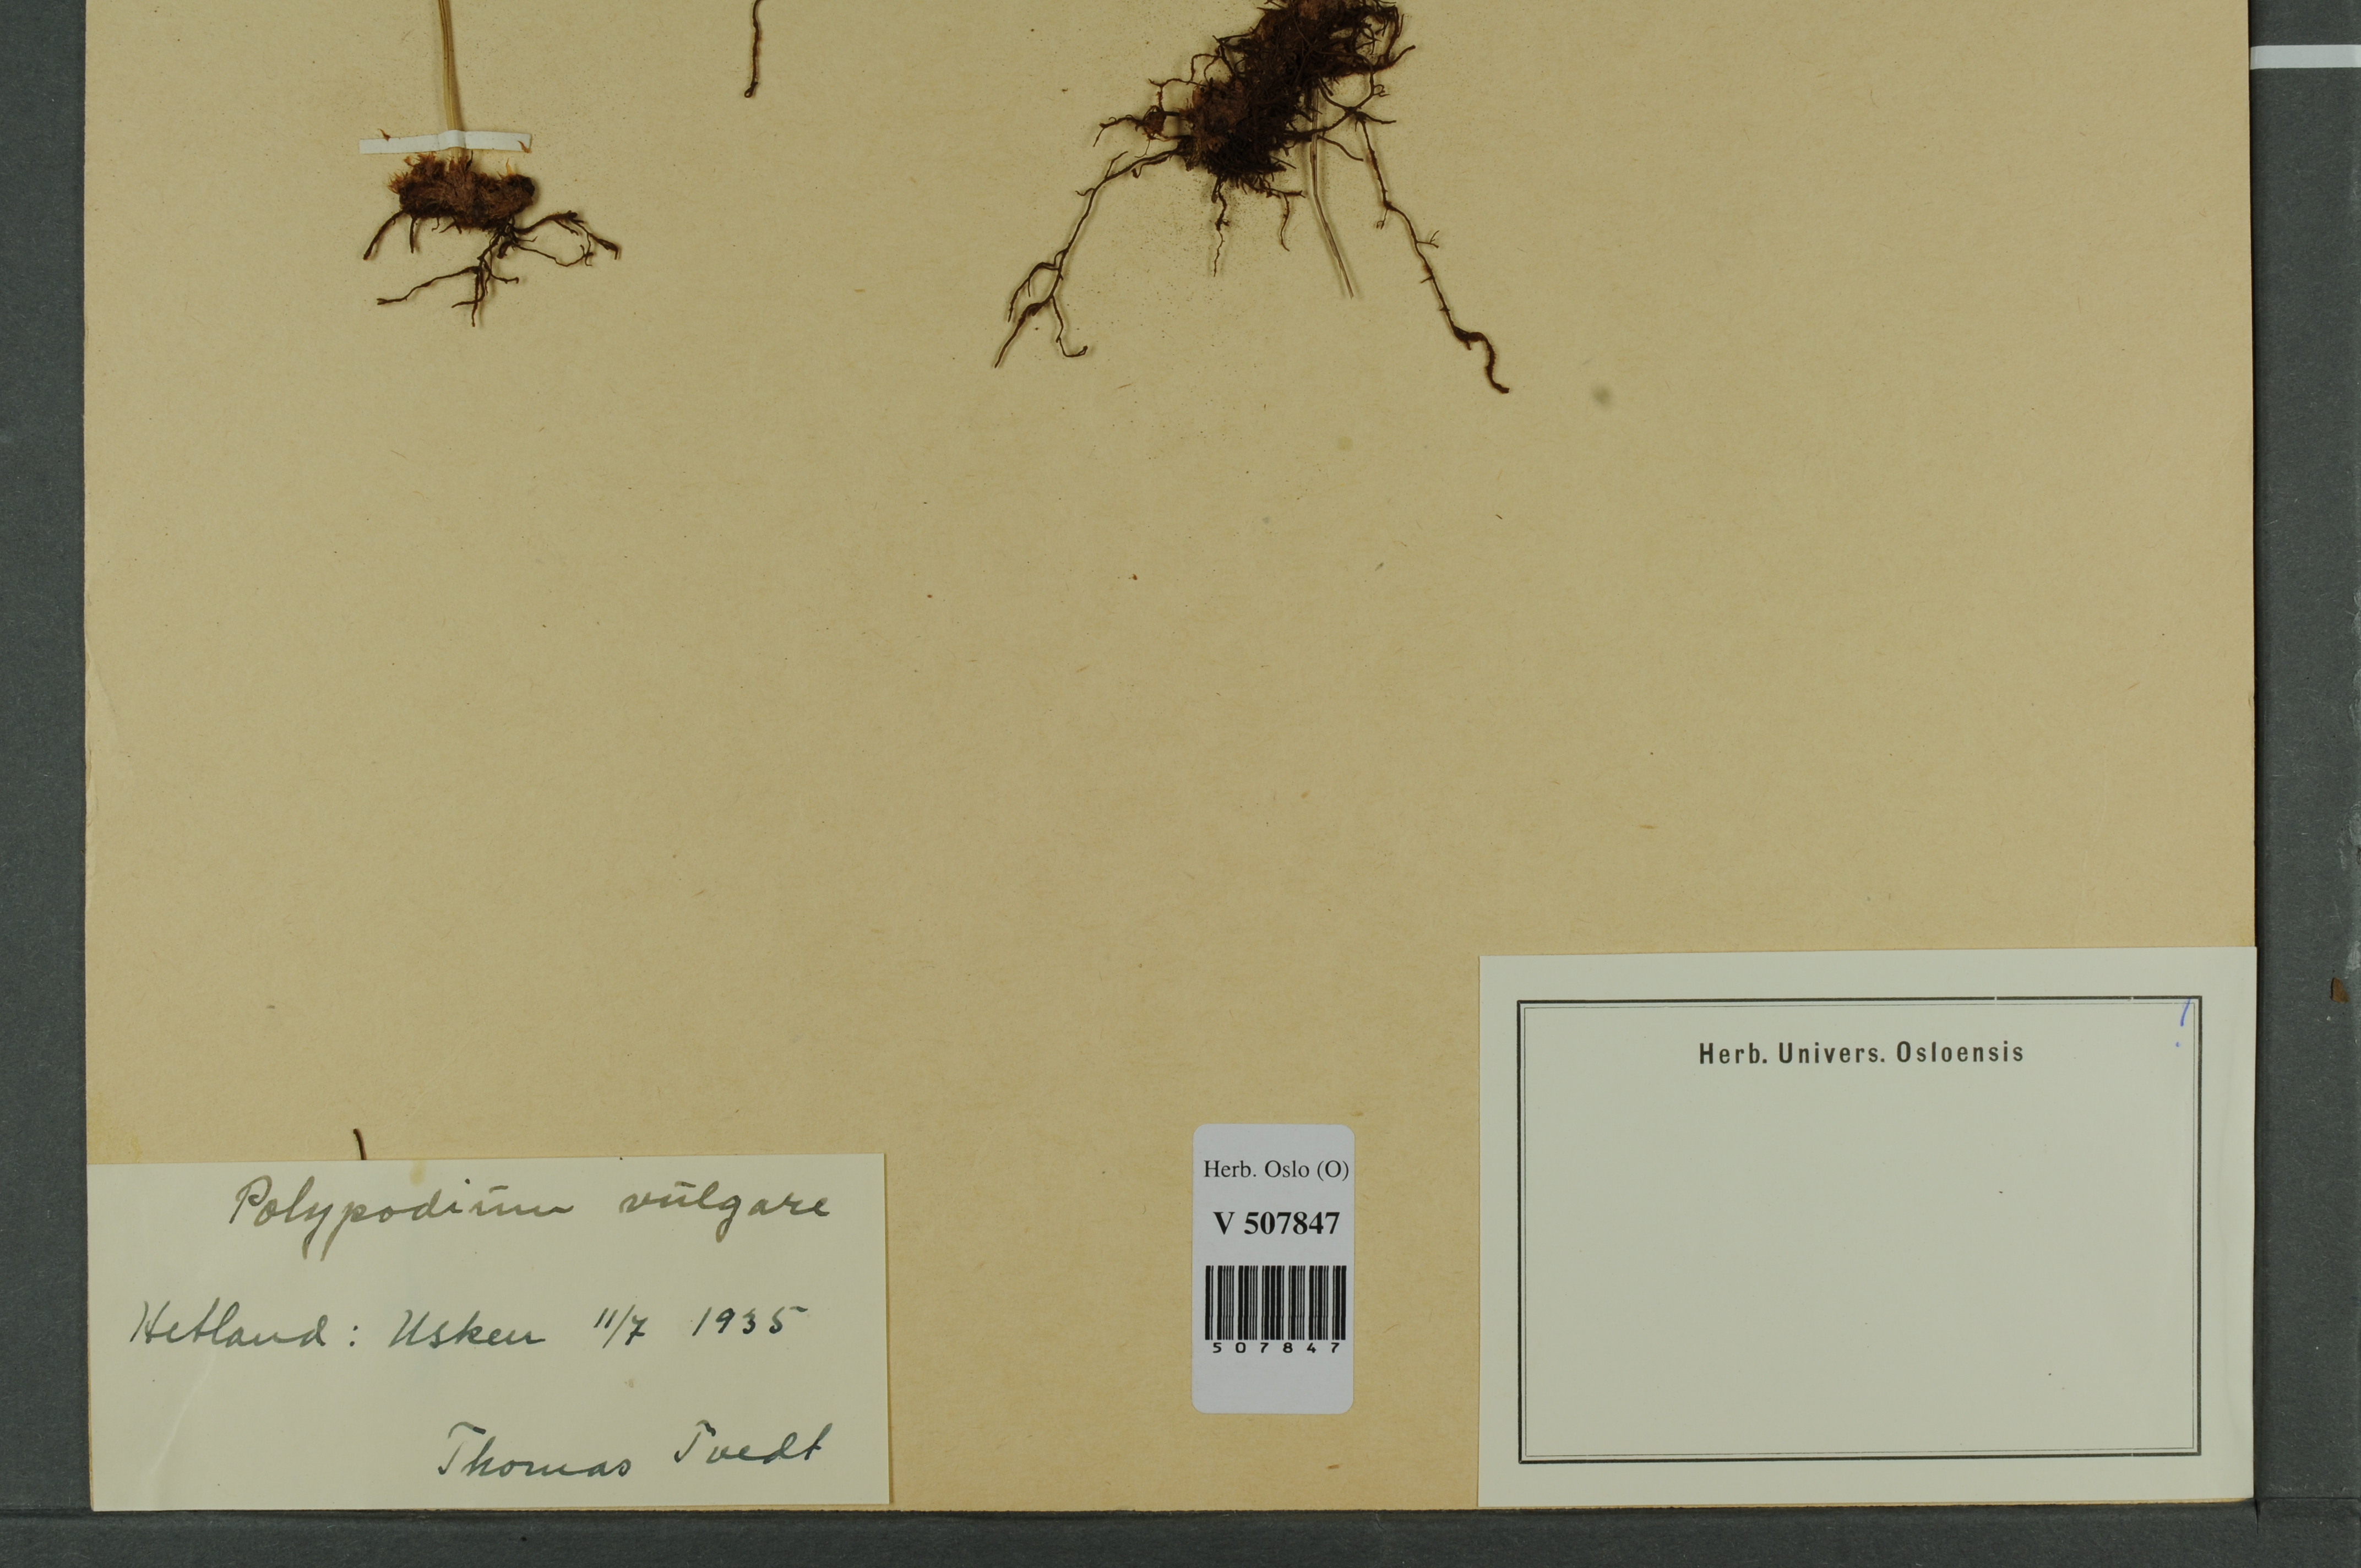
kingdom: Plantae
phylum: Tracheophyta
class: Polypodiopsida
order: Polypodiales
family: Polypodiaceae
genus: Polypodium
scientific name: Polypodium vulgare
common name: Common polypody
